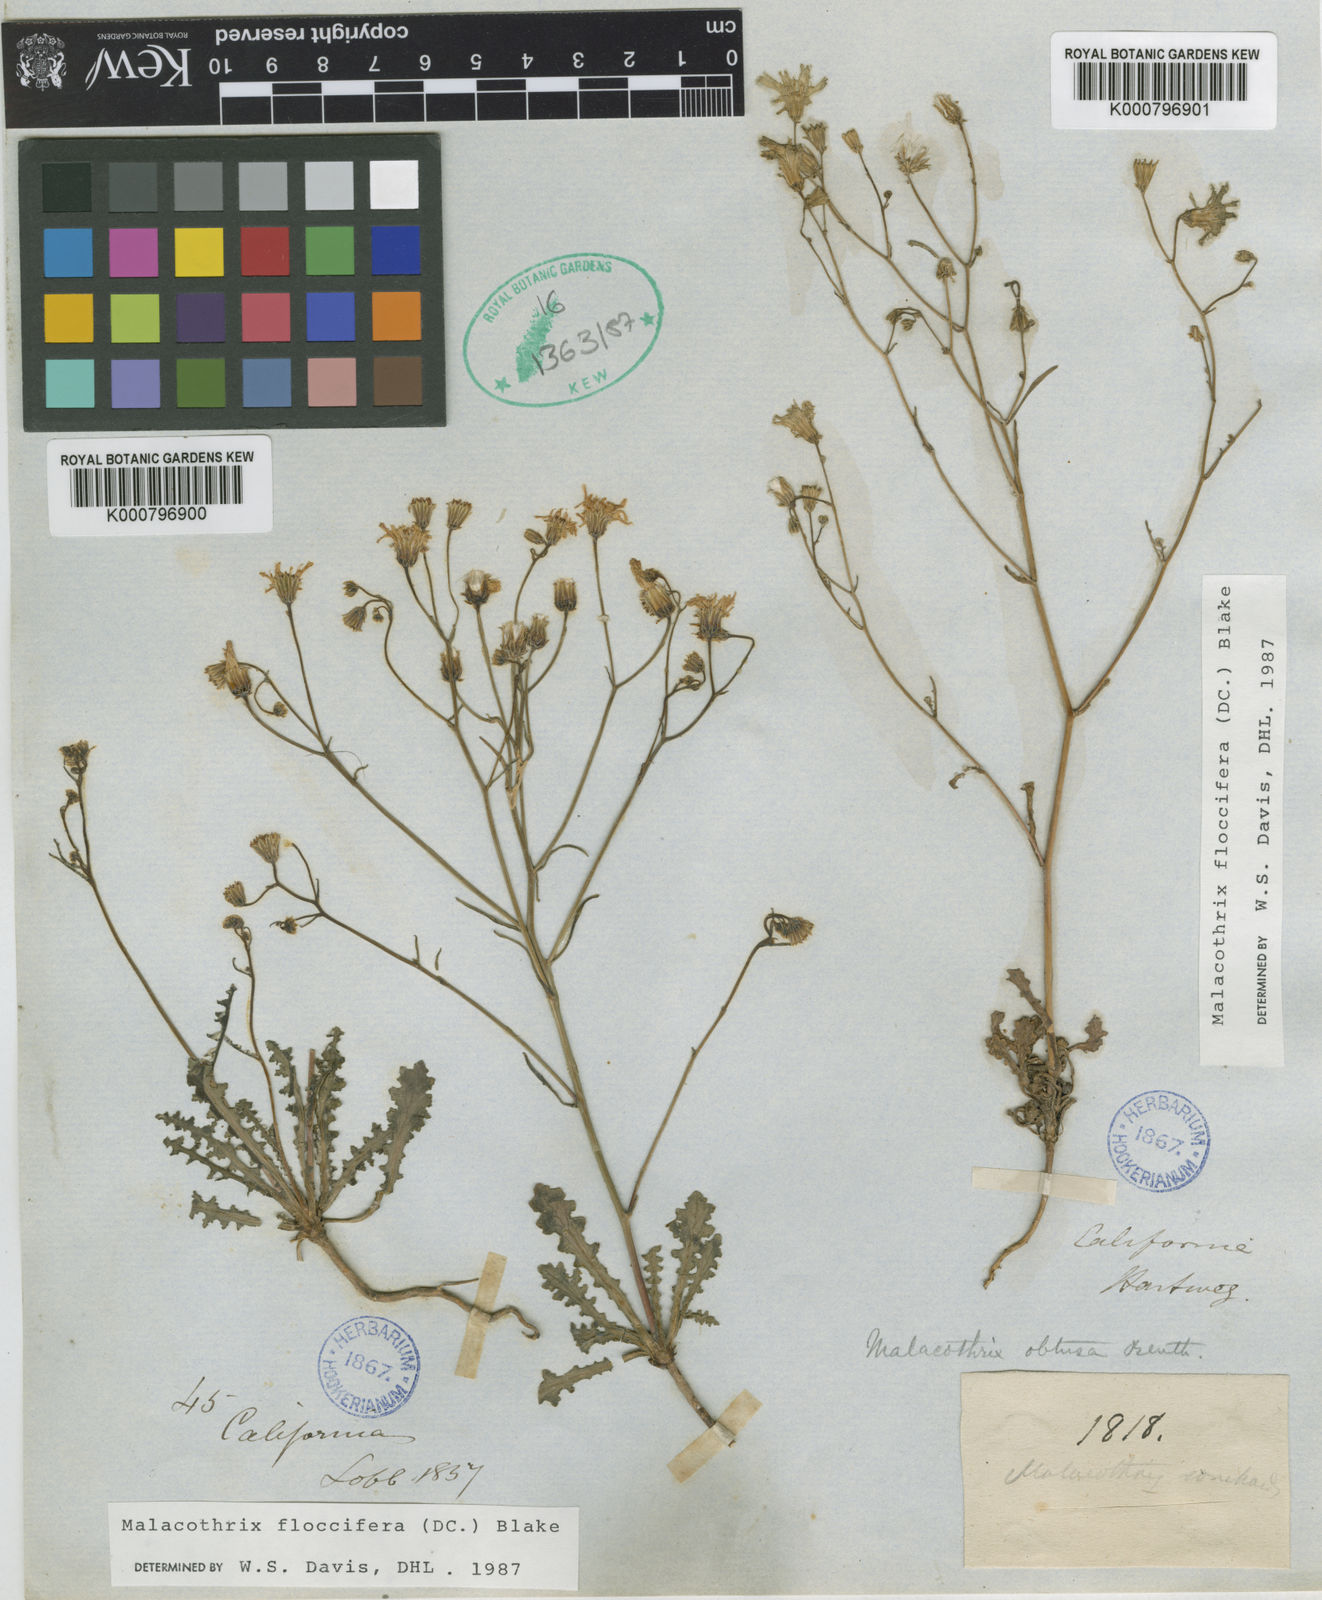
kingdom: Plantae
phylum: Tracheophyta
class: Magnoliopsida
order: Asterales
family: Asteraceae
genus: Malacothrix
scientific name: Malacothrix phaeocarpa
